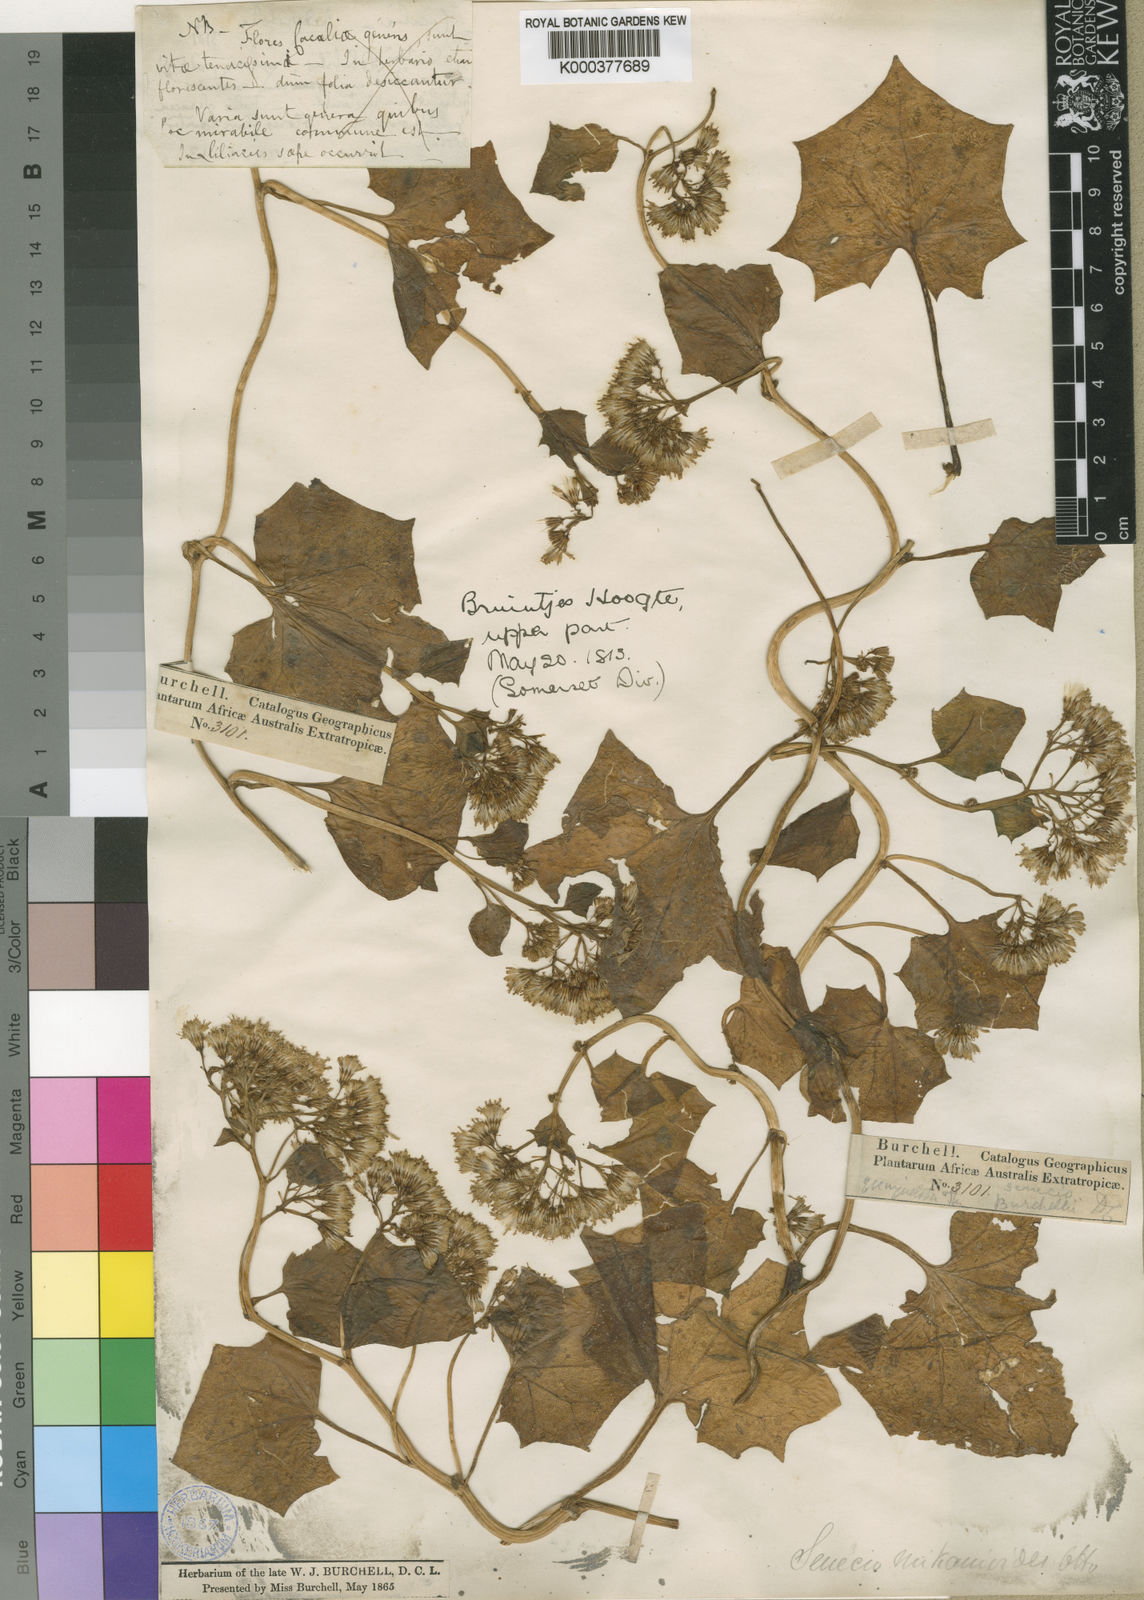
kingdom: Plantae
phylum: Tracheophyta
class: Magnoliopsida
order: Asterales
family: Asteraceae
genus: Delairea
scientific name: Delairea odorata
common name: Cape-ivy
